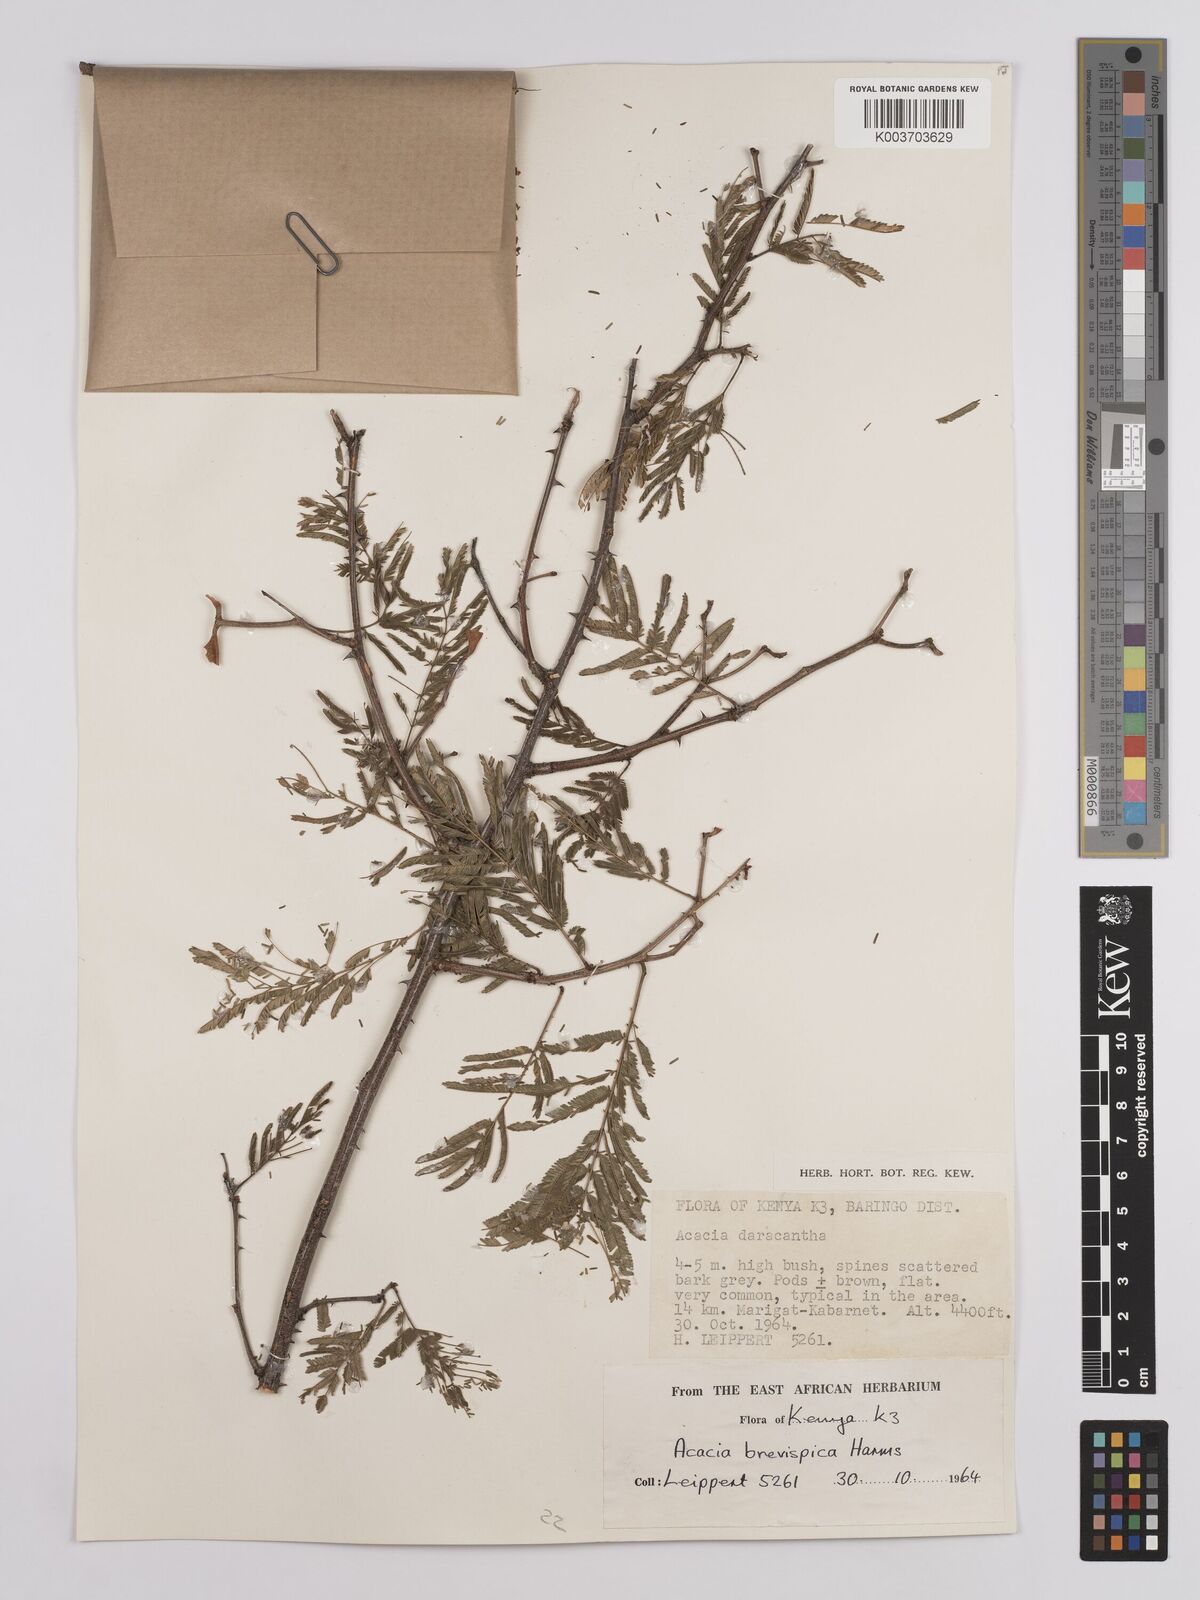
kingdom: Plantae
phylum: Tracheophyta
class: Magnoliopsida
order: Fabales
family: Fabaceae
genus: Senegalia
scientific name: Senegalia brevispica
